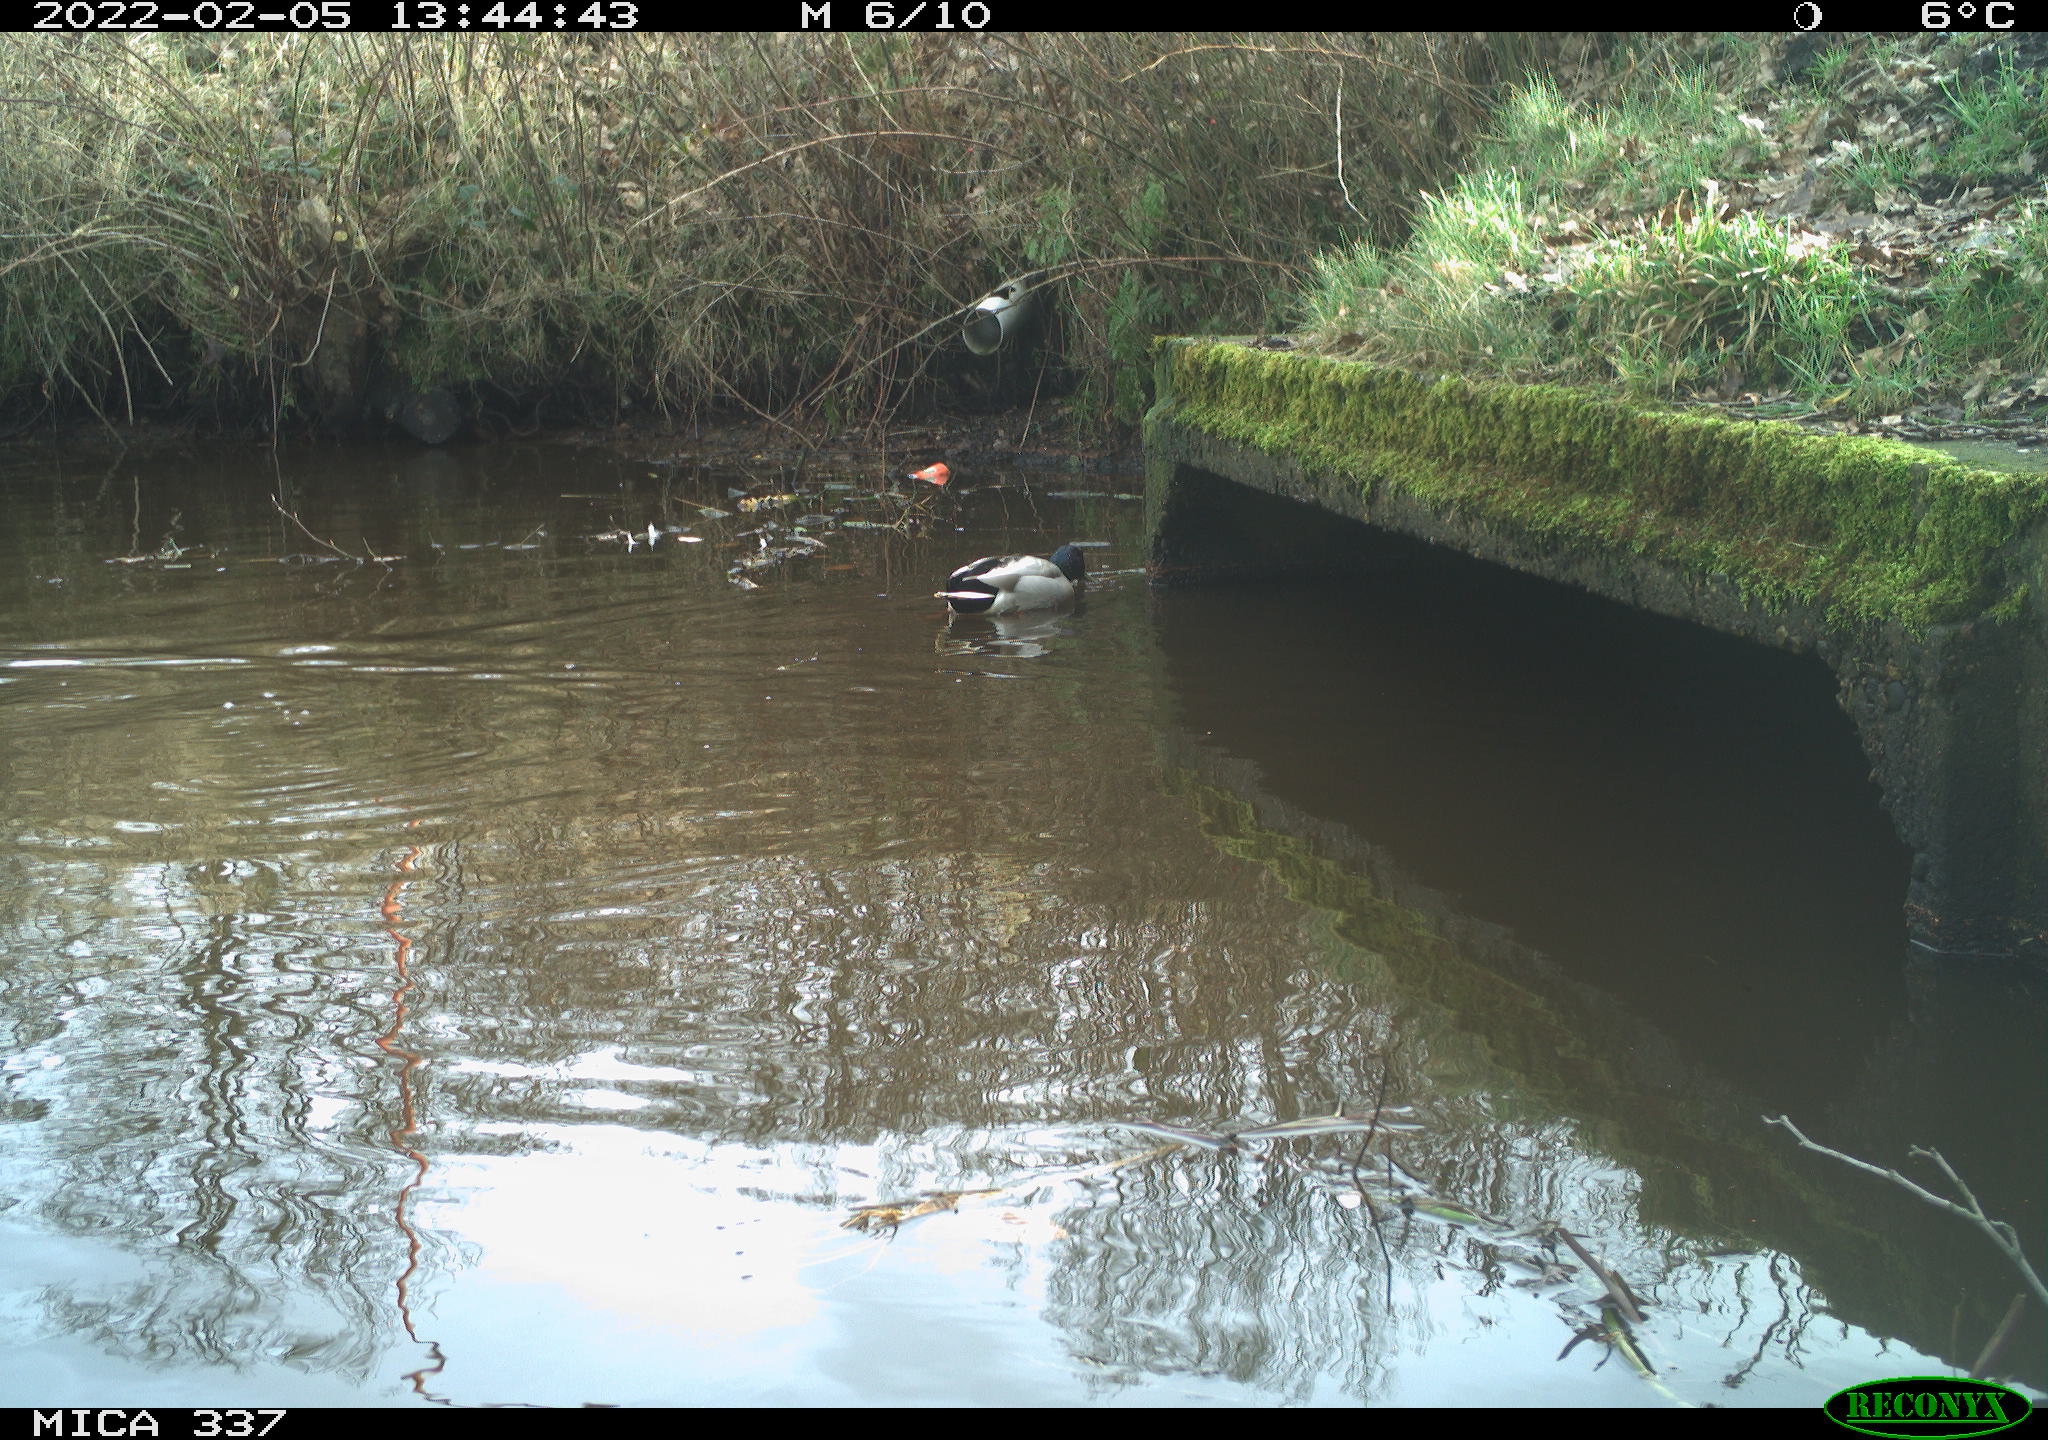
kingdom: Animalia
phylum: Chordata
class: Aves
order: Anseriformes
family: Anatidae
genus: Anas
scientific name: Anas platyrhynchos
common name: Mallard
